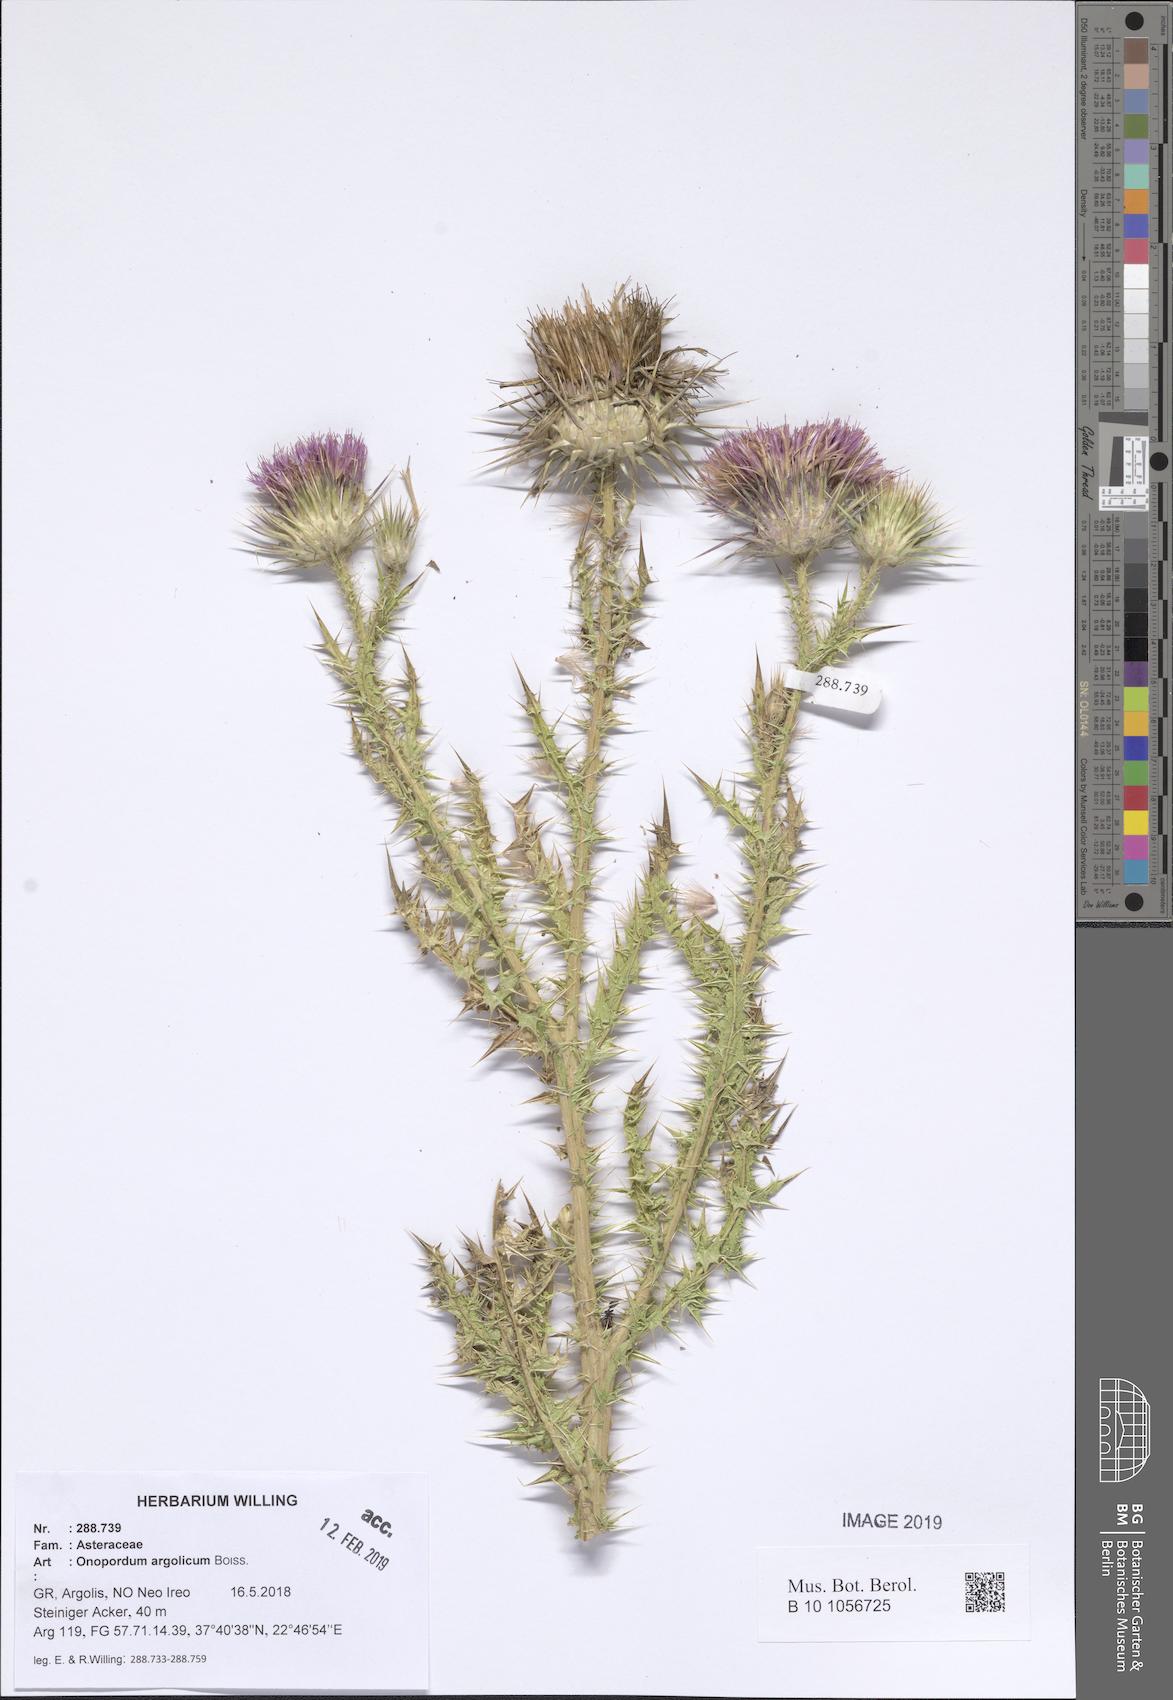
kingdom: Plantae
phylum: Tracheophyta
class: Magnoliopsida
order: Asterales
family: Asteraceae
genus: Onopordum
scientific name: Onopordum tauricum
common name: Bull cottonthistle
